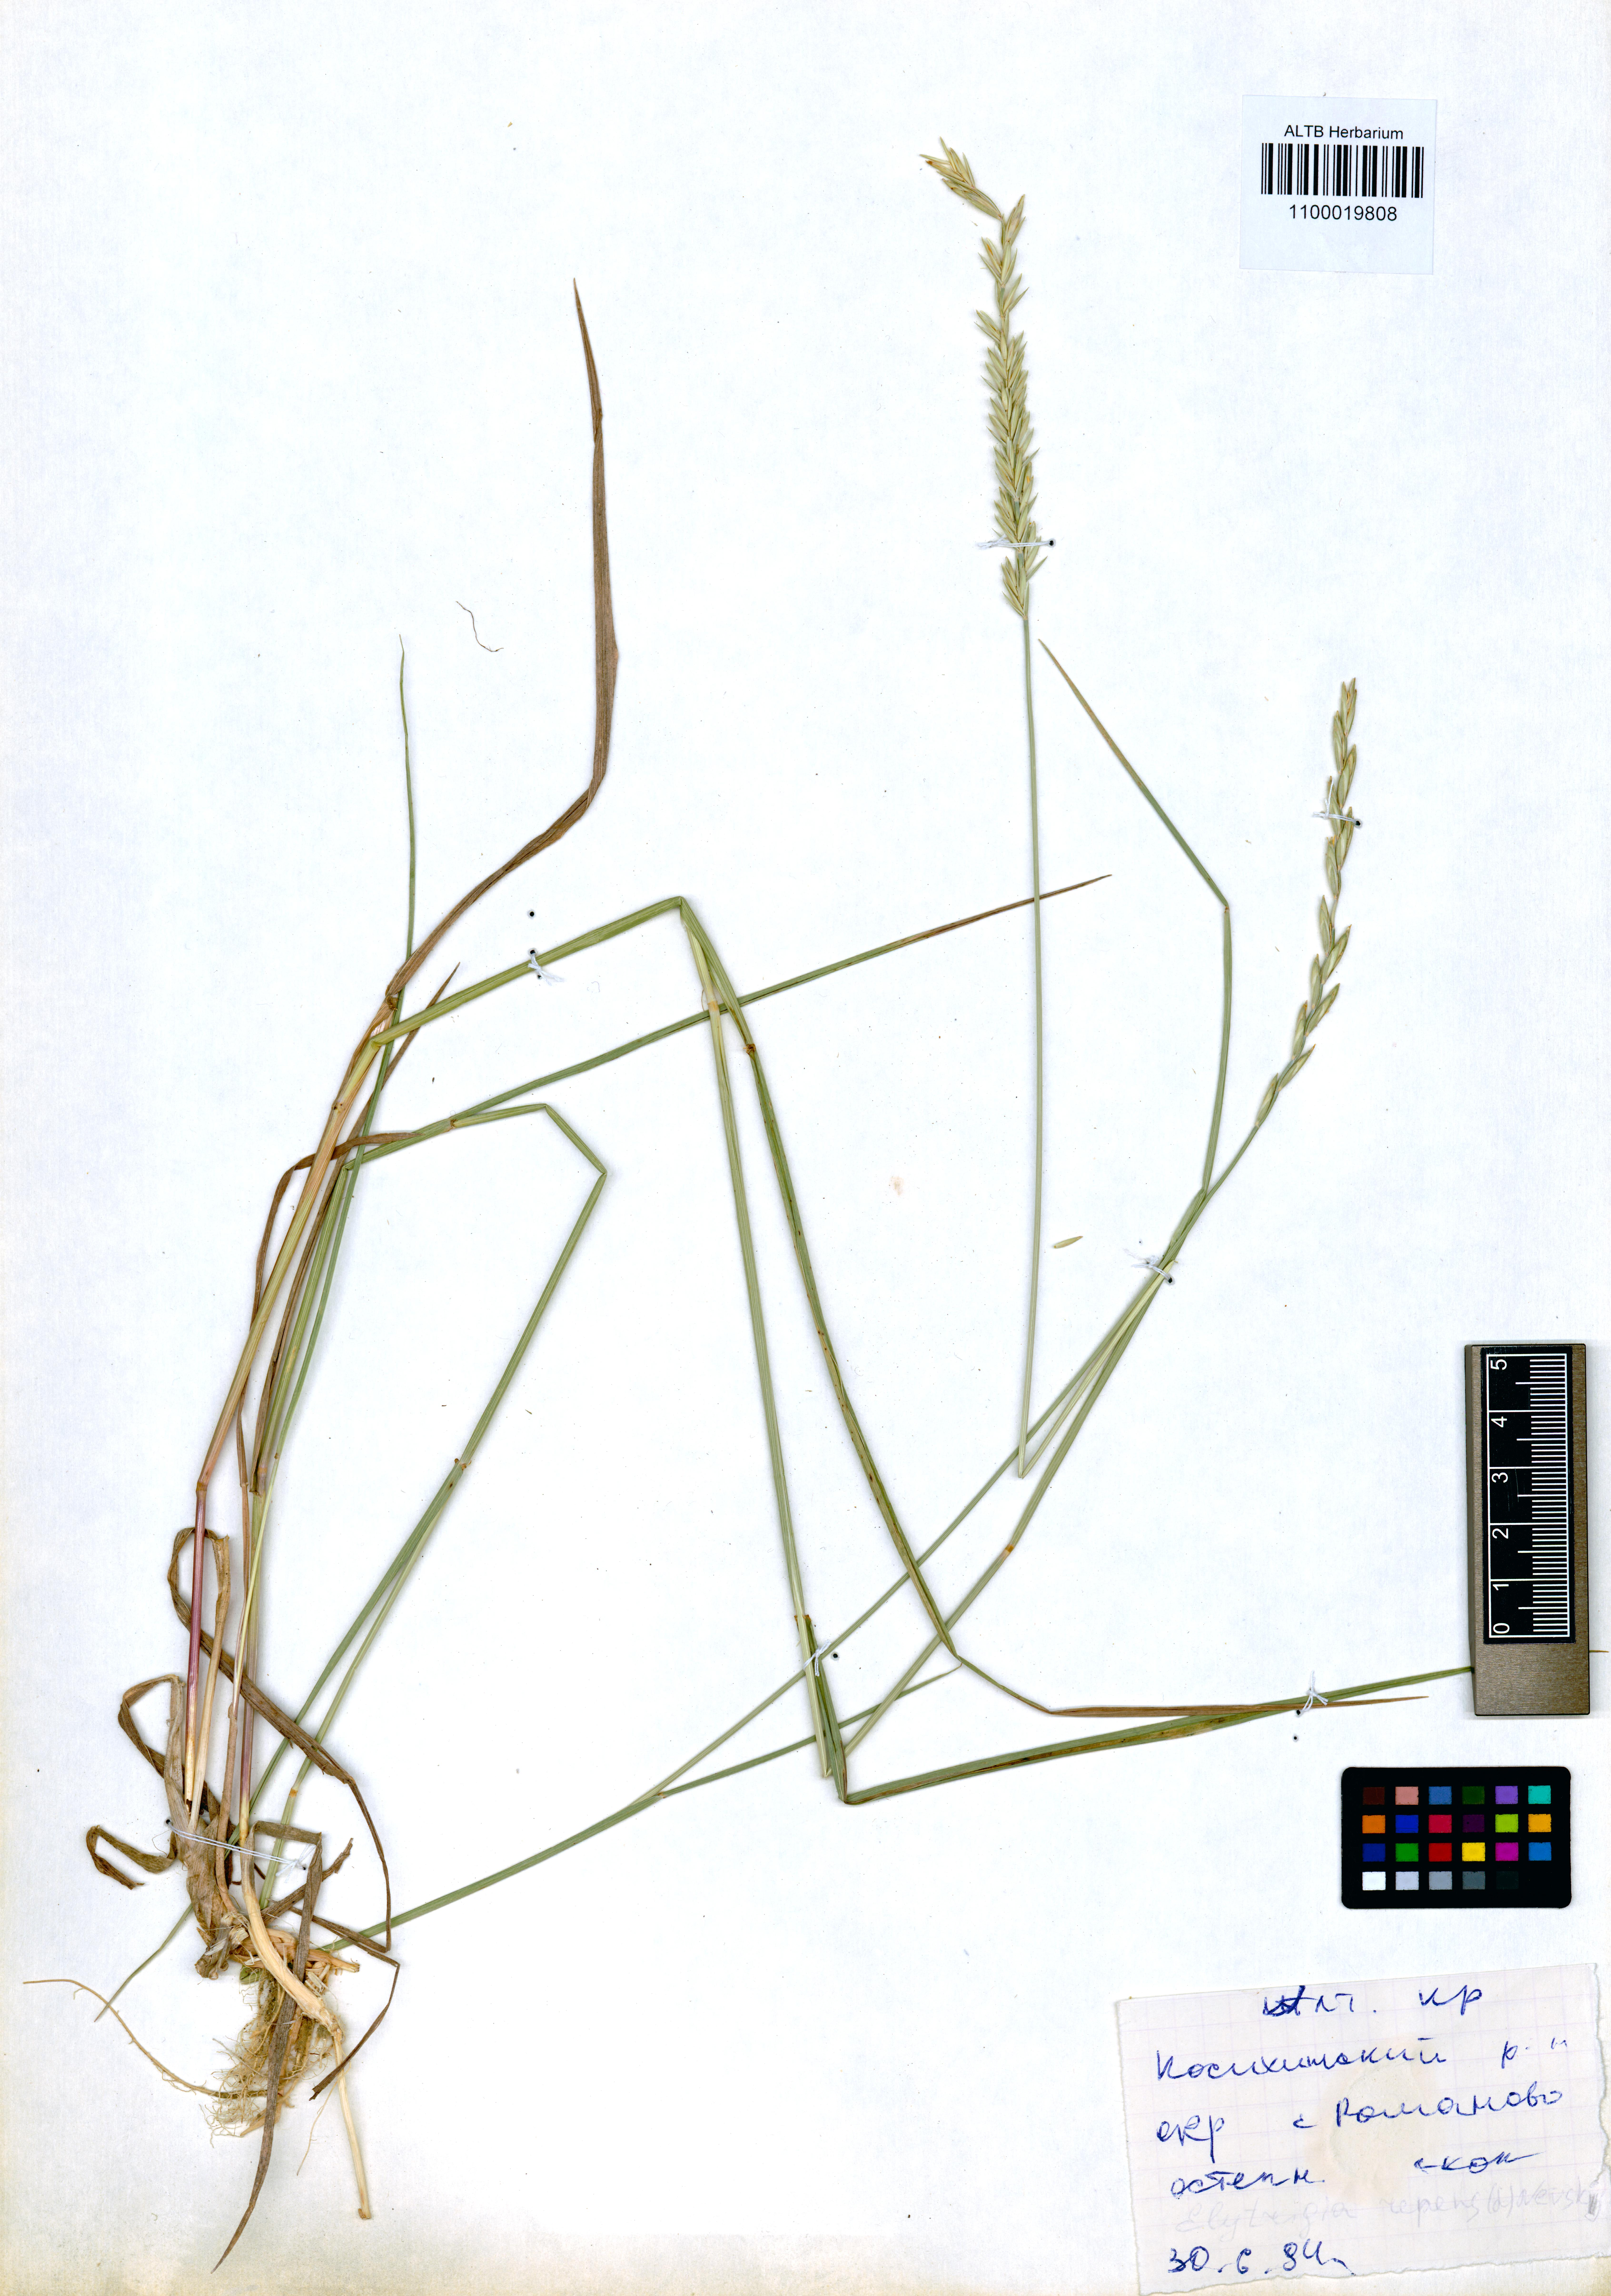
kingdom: Plantae
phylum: Tracheophyta
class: Liliopsida
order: Poales
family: Poaceae
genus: Elymus
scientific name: Elymus repens
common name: Quackgrass
